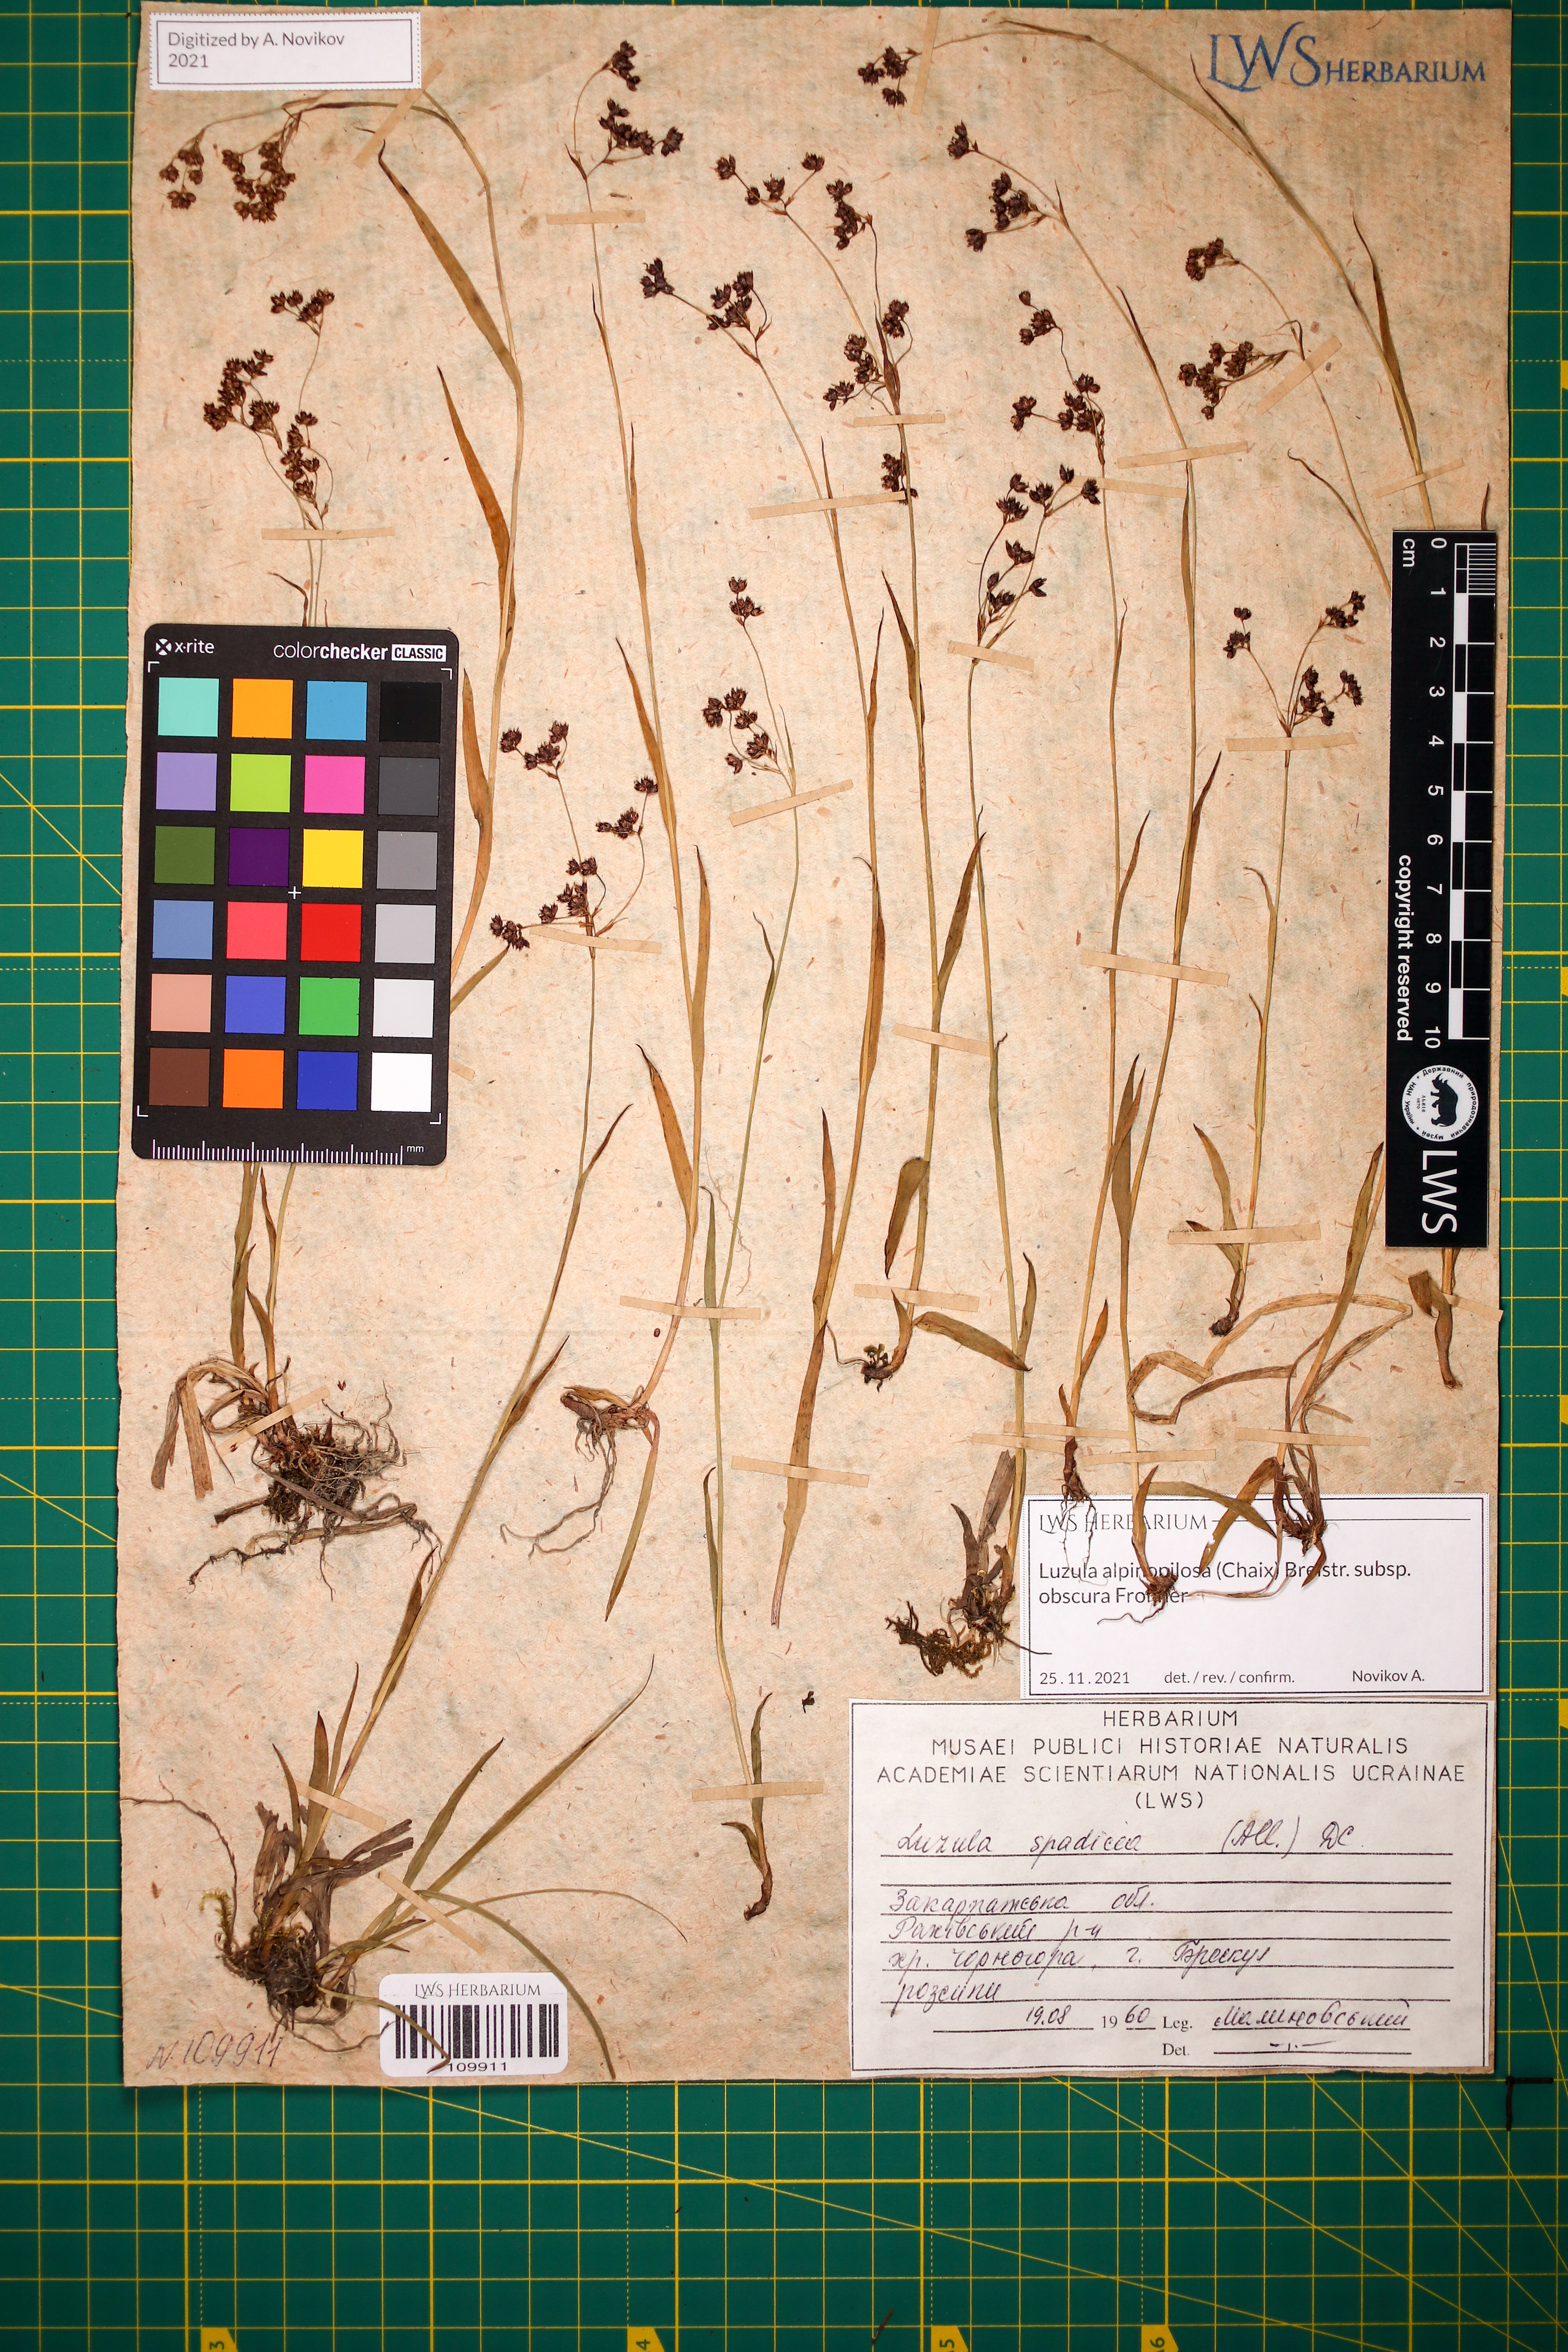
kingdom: Plantae
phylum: Tracheophyta
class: Liliopsida
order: Poales
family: Juncaceae
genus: Luzula
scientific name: Luzula alpinopilosa
